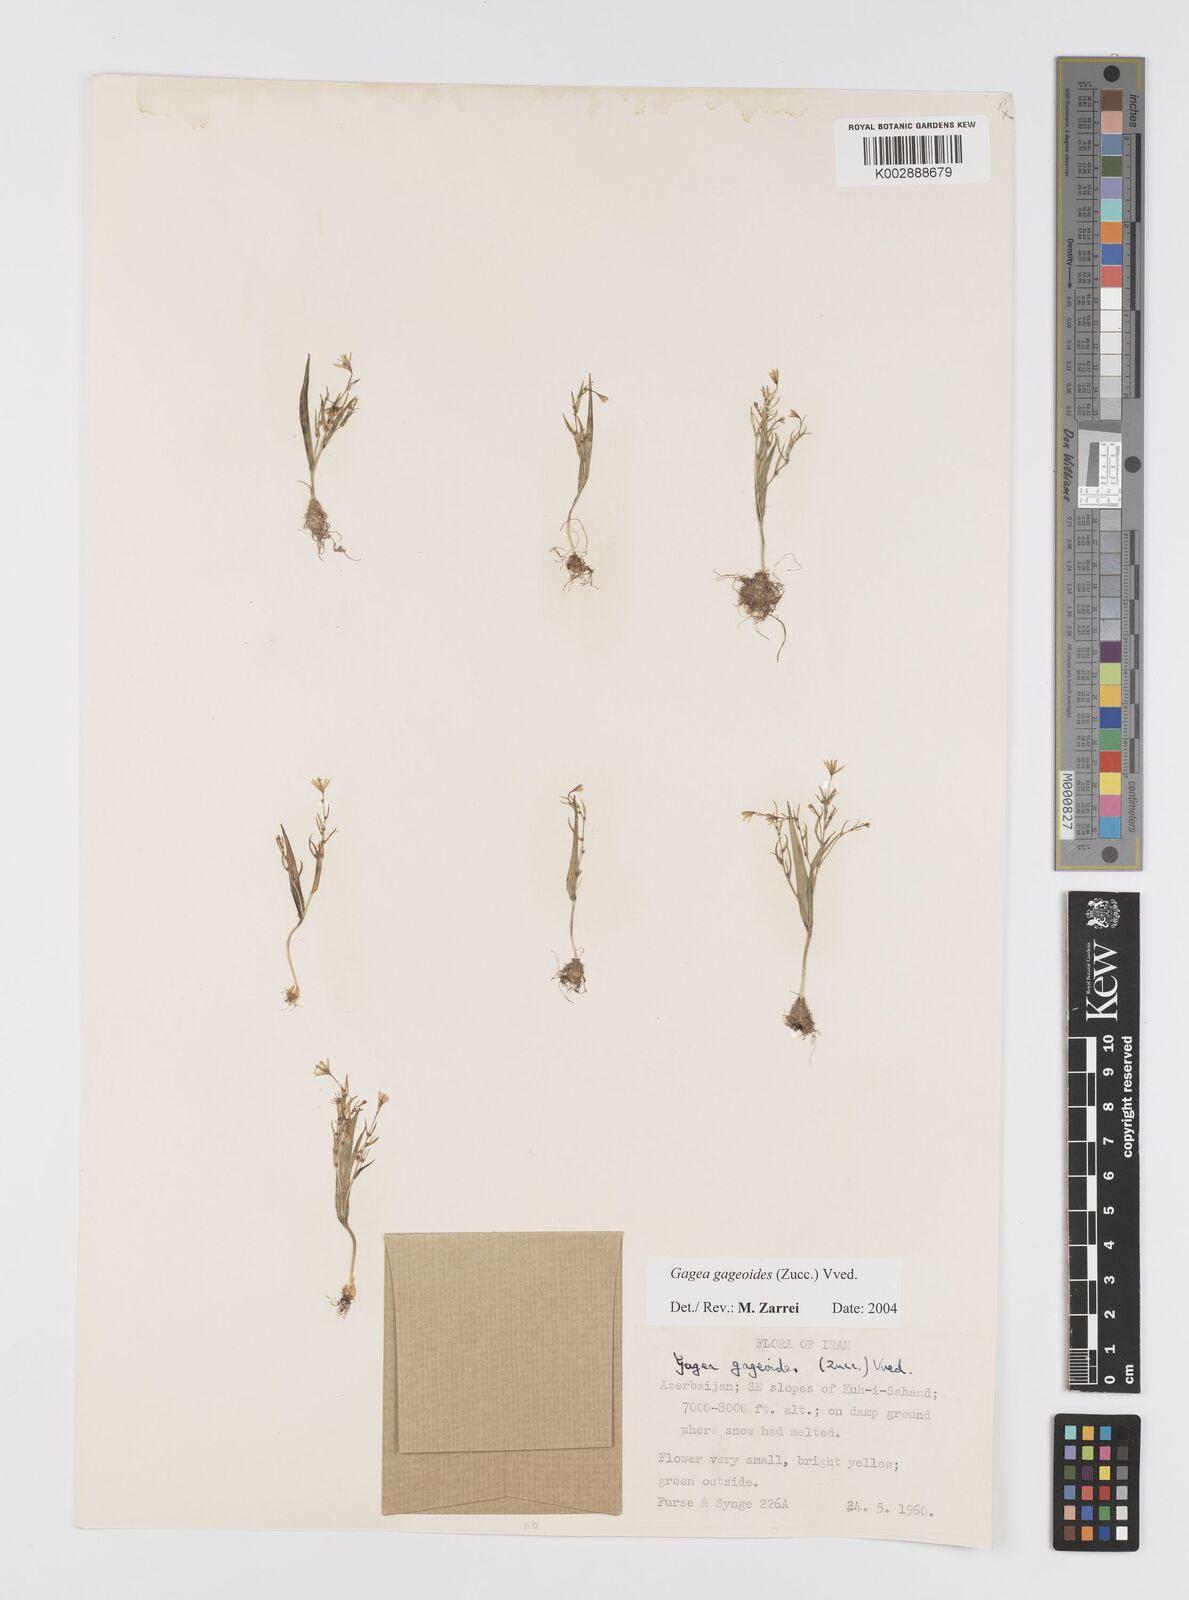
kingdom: Plantae
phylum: Tracheophyta
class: Liliopsida
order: Liliales
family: Liliaceae
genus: Gagea
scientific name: Gagea gageoides
